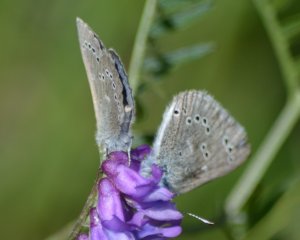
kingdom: Animalia
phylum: Arthropoda
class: Insecta
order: Lepidoptera
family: Lycaenidae
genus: Glaucopsyche
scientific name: Glaucopsyche lygdamus
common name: Silvery Blue
